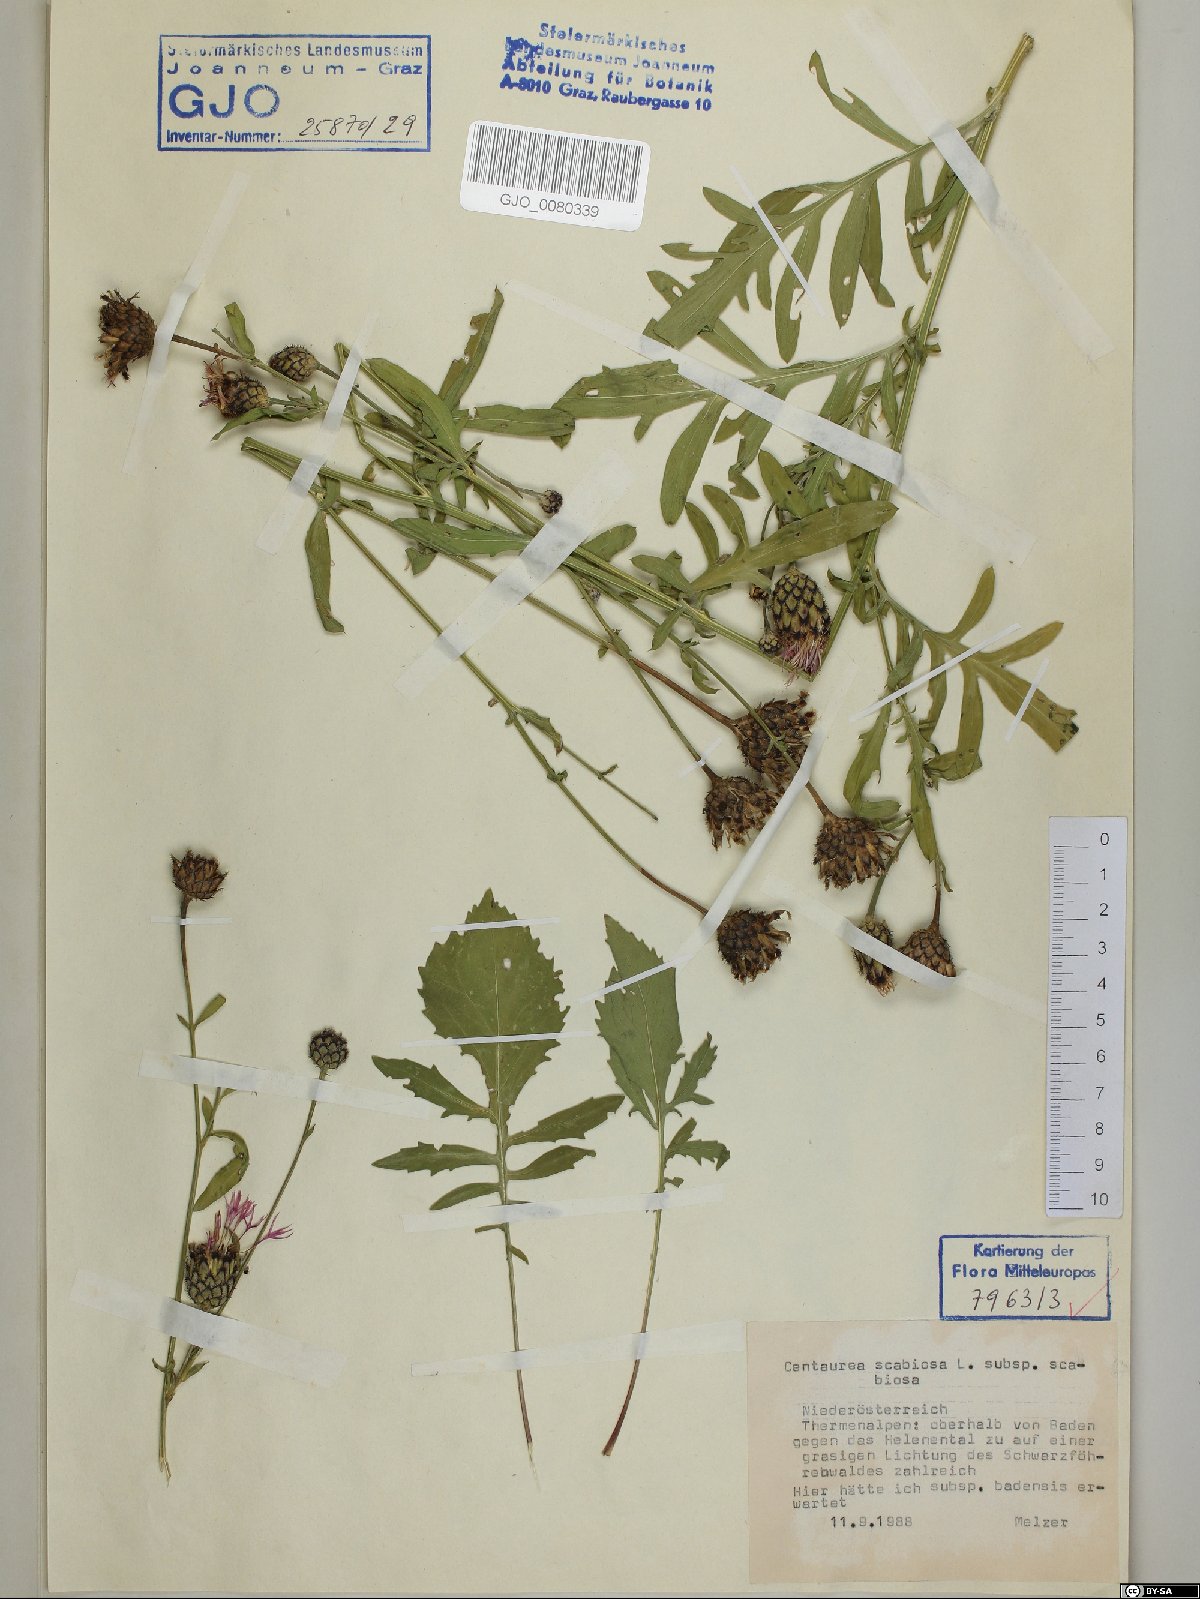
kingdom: Plantae
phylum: Tracheophyta
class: Magnoliopsida
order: Asterales
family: Asteraceae
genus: Centaurea
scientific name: Centaurea scabiosa
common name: Greater knapweed
